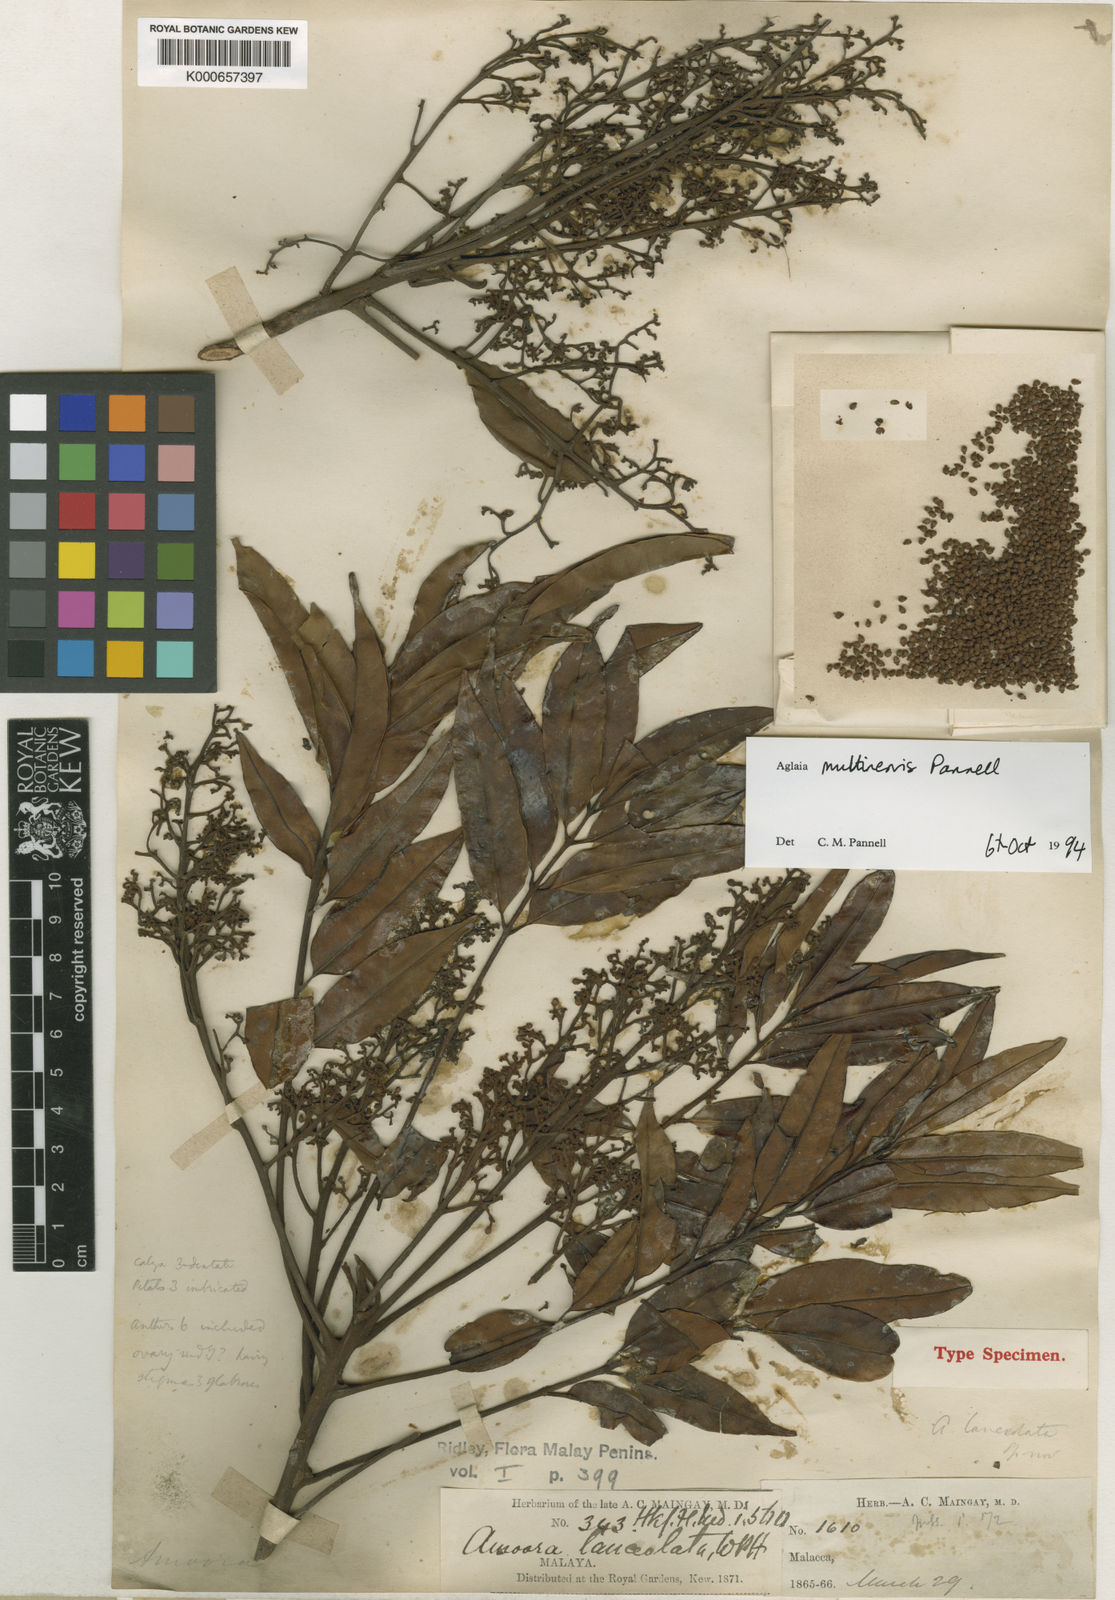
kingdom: Plantae
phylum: Tracheophyta
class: Magnoliopsida
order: Sapindales
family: Meliaceae
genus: Aglaia
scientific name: Aglaia multinervis
